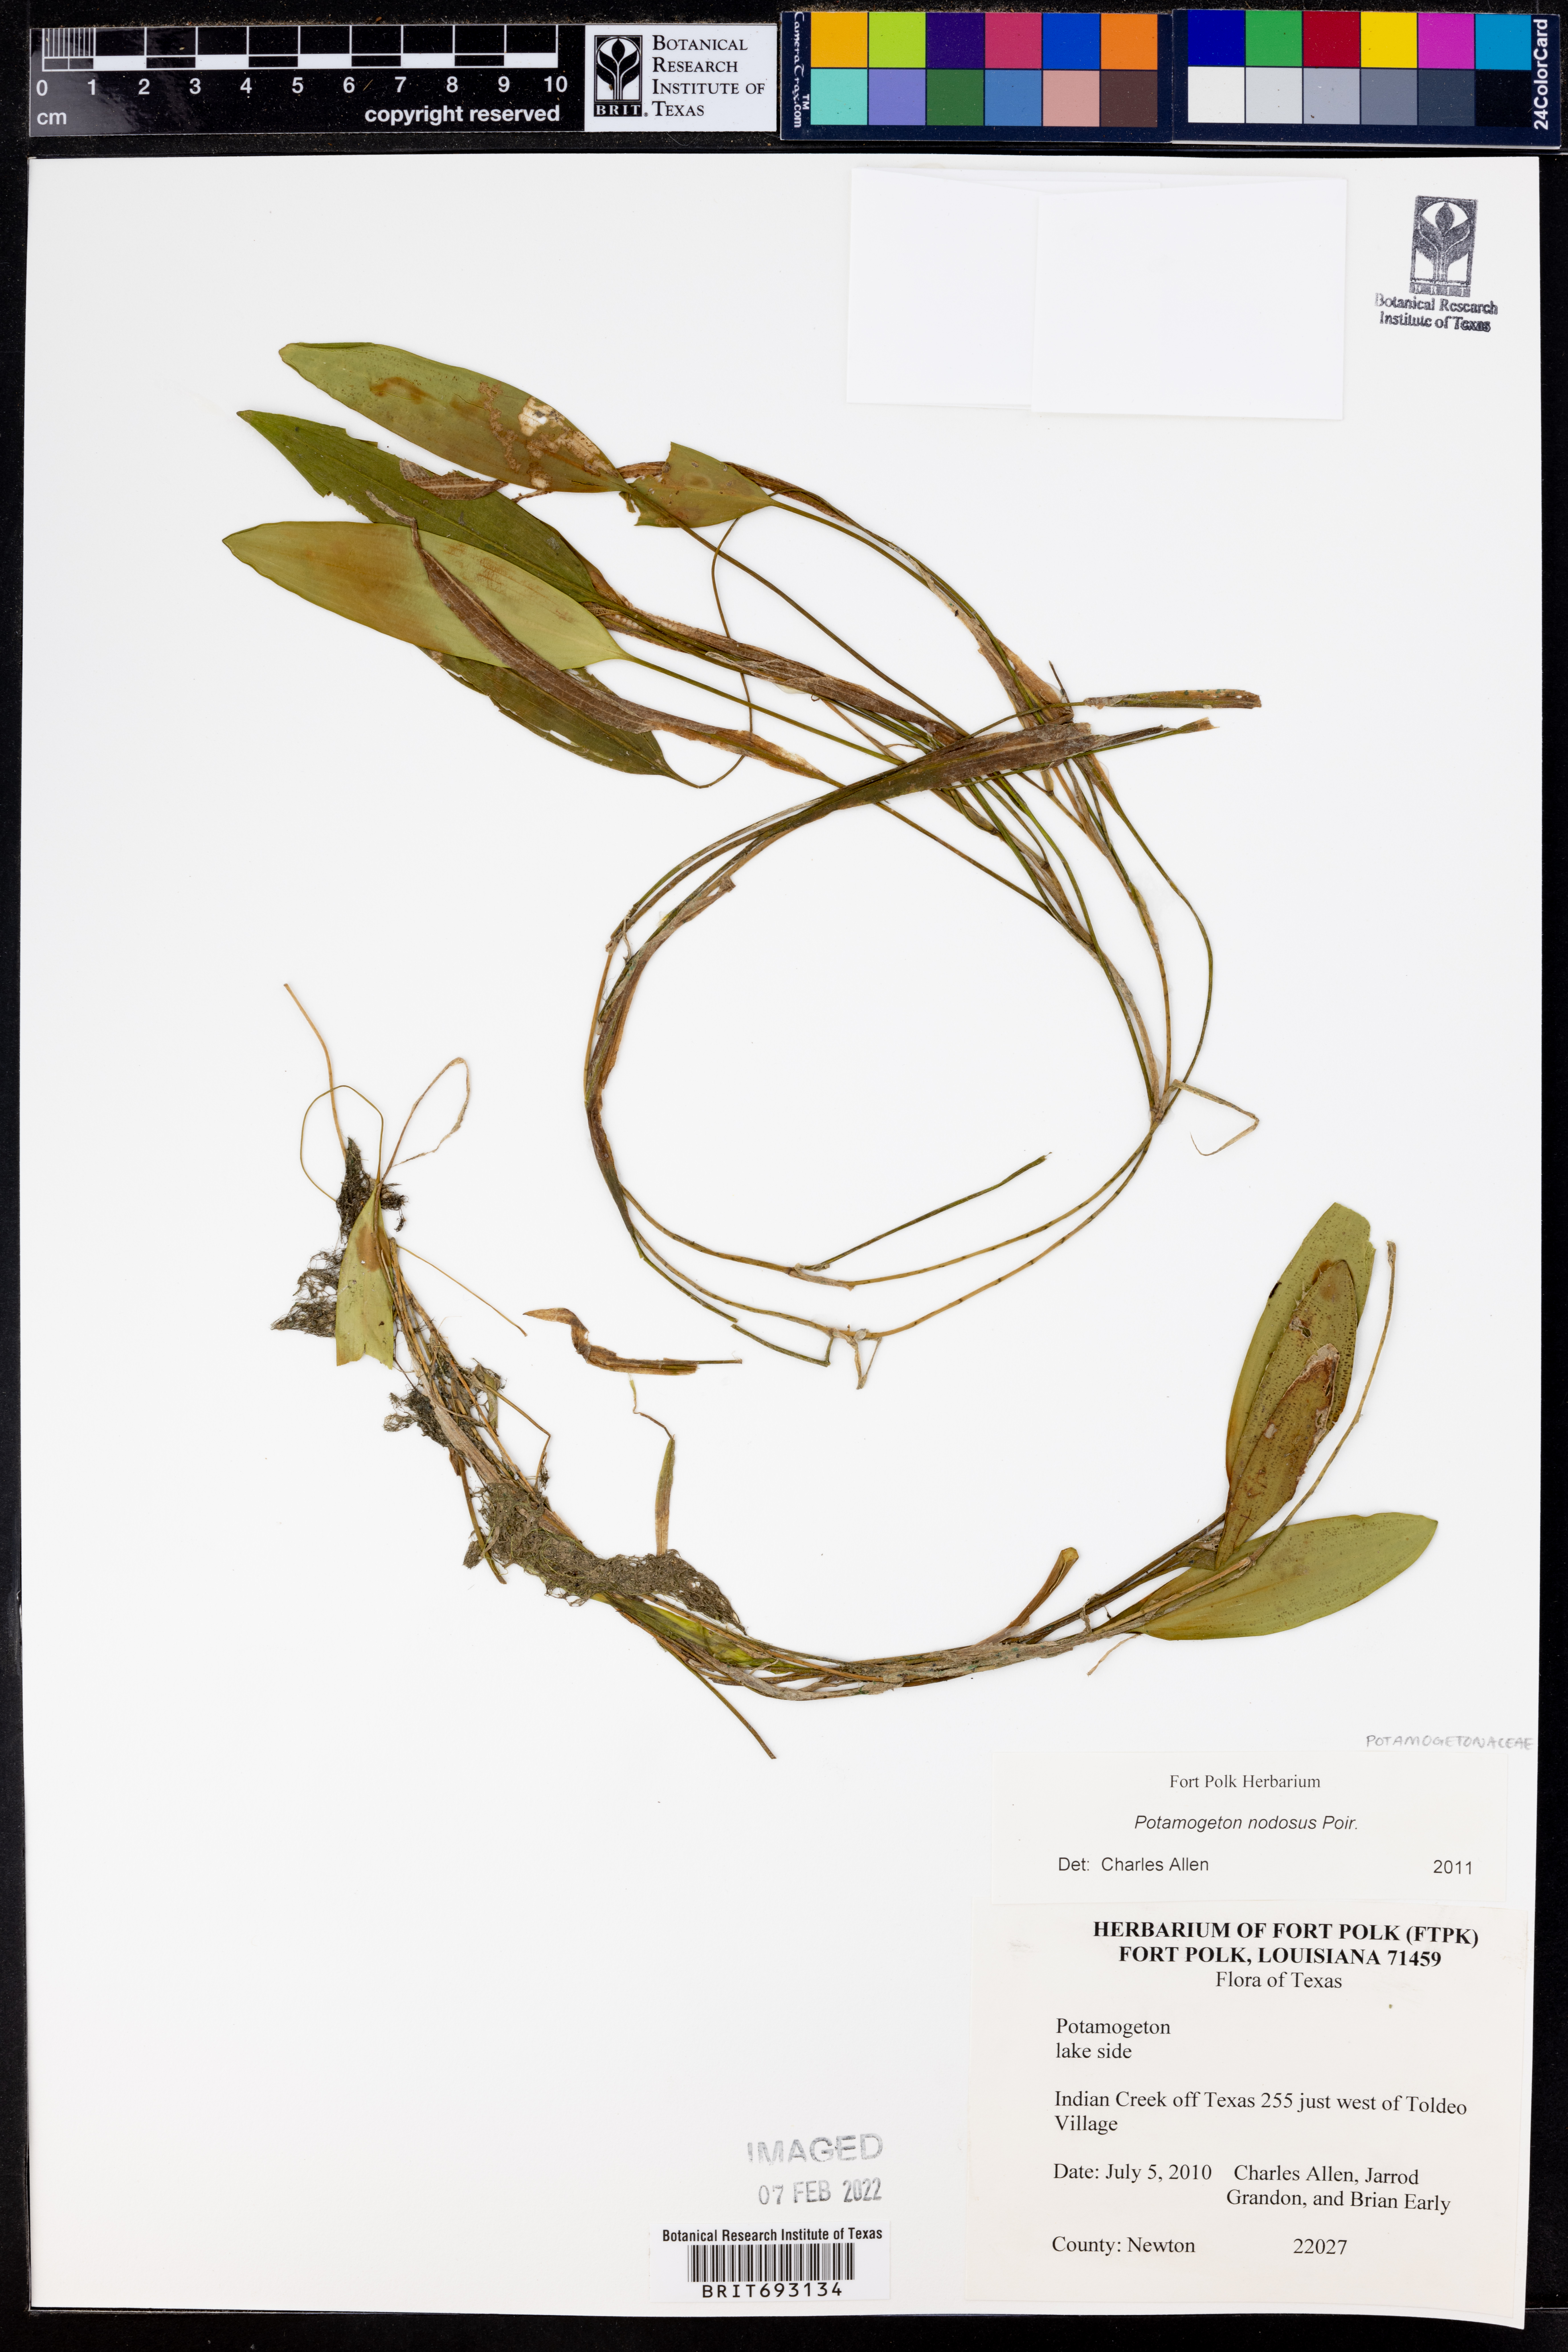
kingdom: Plantae
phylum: Tracheophyta
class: Liliopsida
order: Alismatales
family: Potamogetonaceae
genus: Potamogeton
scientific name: Potamogeton nodosus
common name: Loddon pondweed
